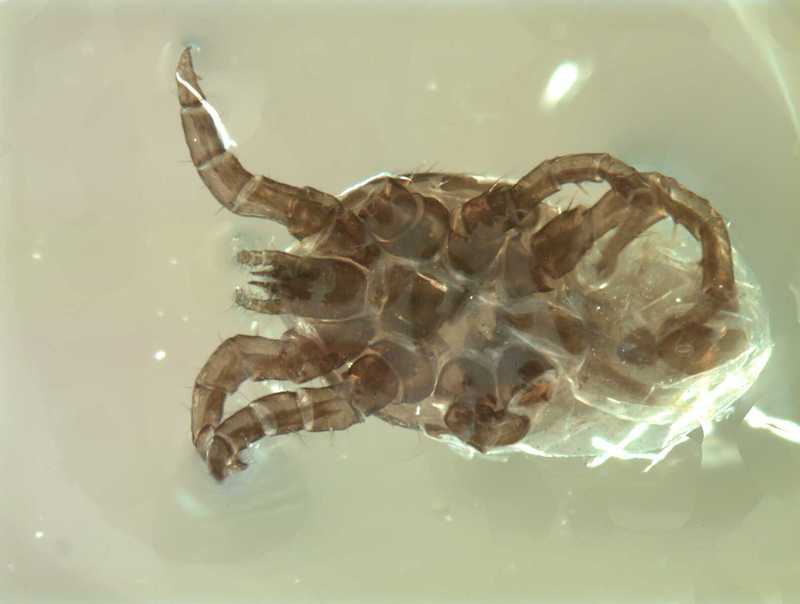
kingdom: Animalia
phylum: Arthropoda
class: Arachnida
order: Mesostigmata
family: Laelapidae
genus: Dinogamasus
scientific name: Dinogamasus
